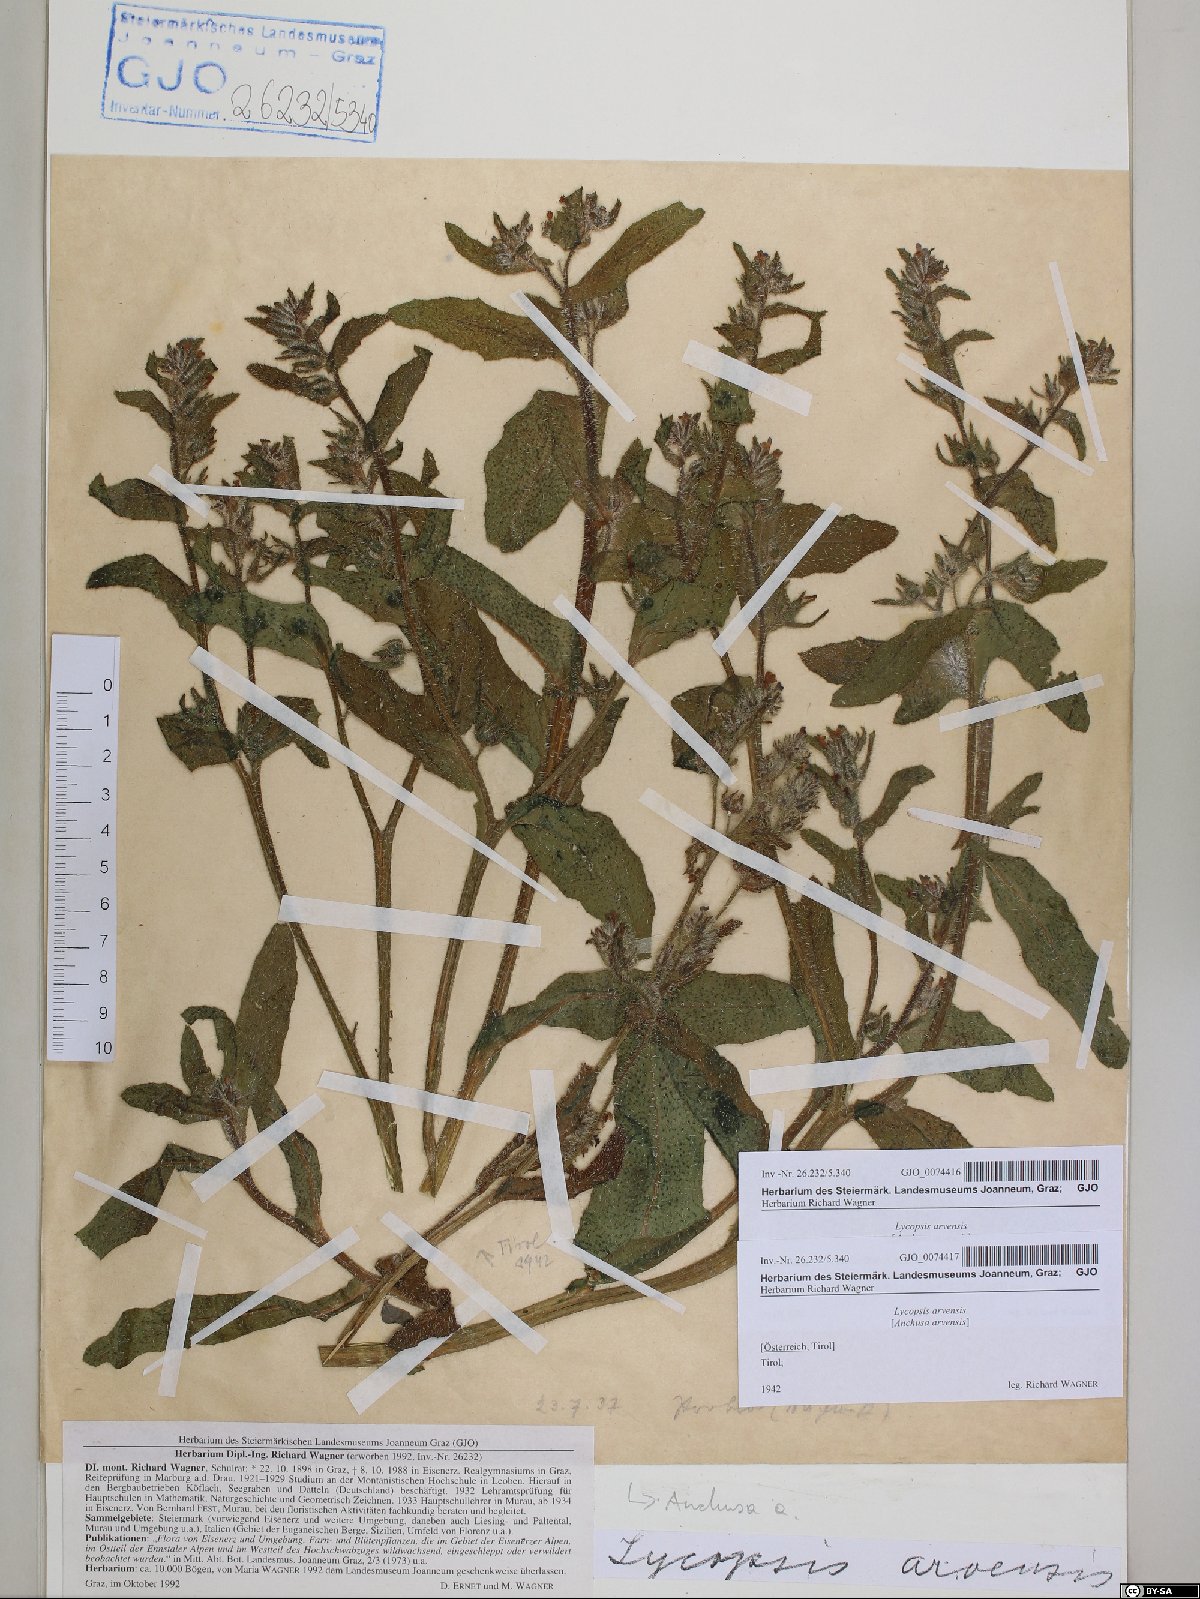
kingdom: Plantae
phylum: Tracheophyta
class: Magnoliopsida
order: Boraginales
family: Boraginaceae
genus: Lycopsis
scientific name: Lycopsis arvensis
